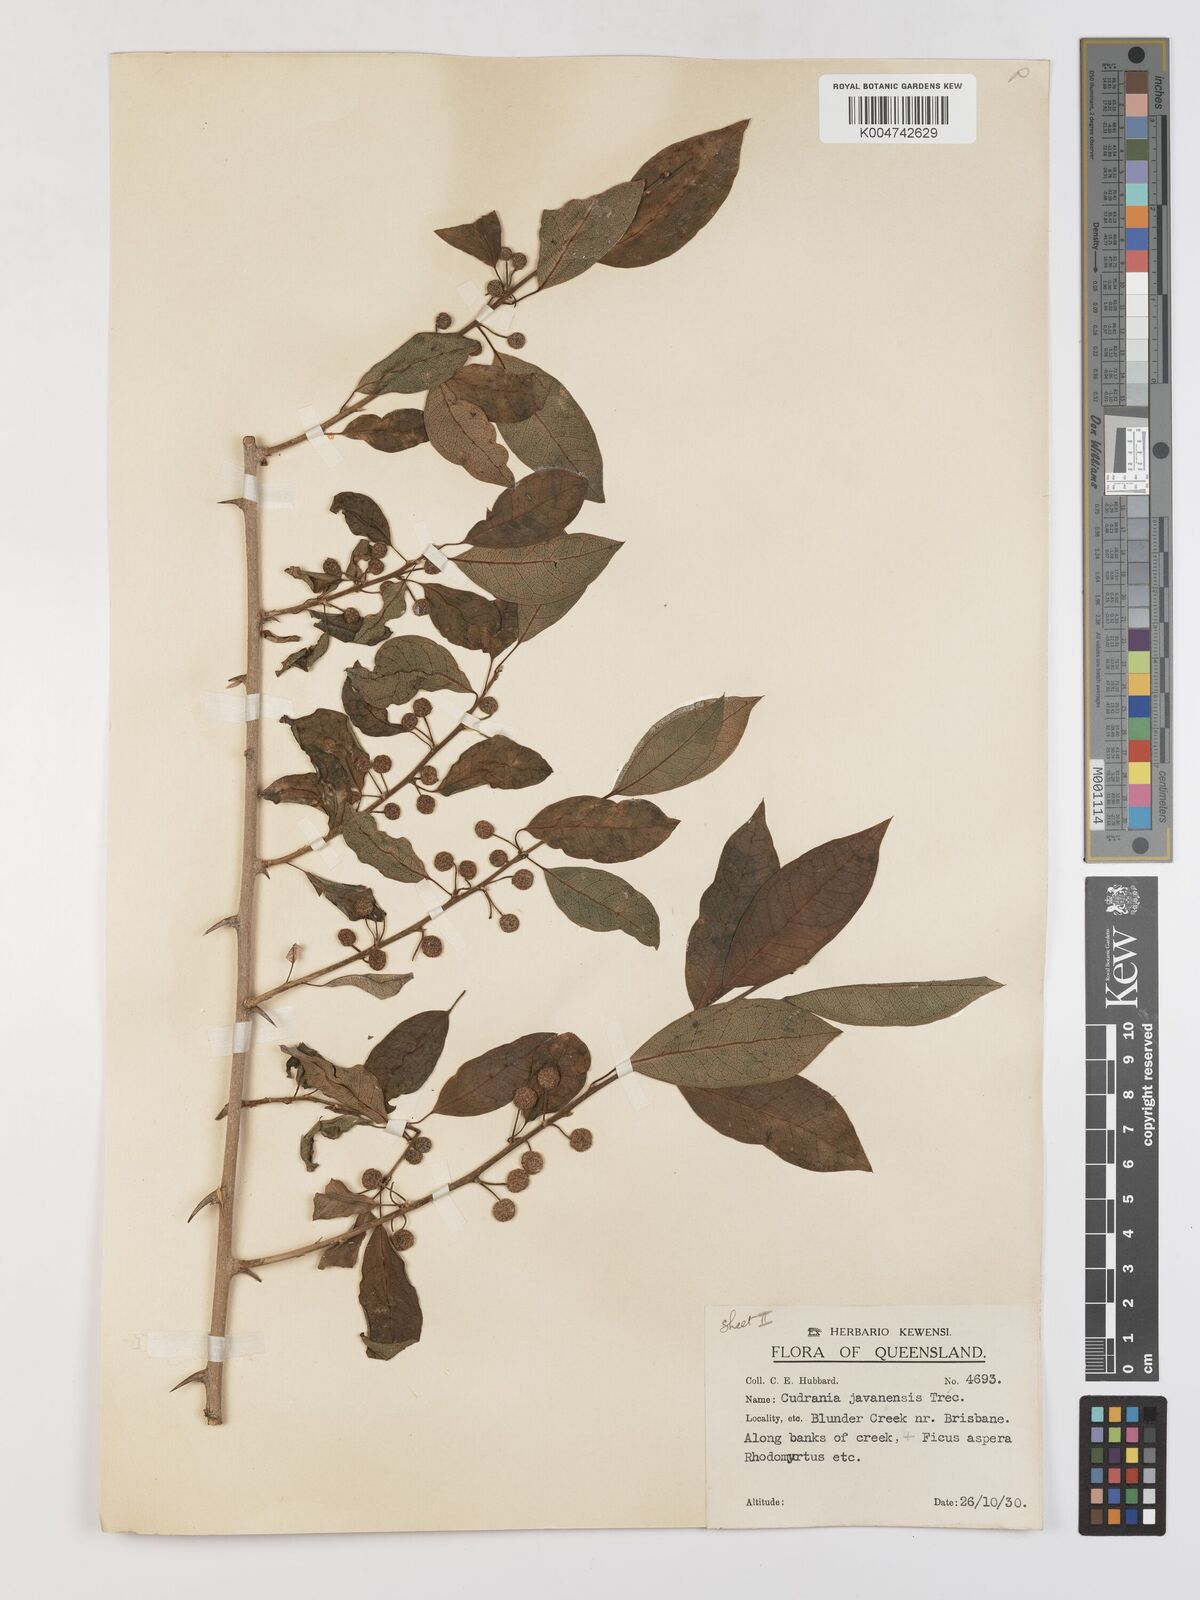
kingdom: Plantae
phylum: Tracheophyta
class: Magnoliopsida
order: Rosales
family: Moraceae
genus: Maclura
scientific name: Maclura cochinchinensis
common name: Cockspurthorn
